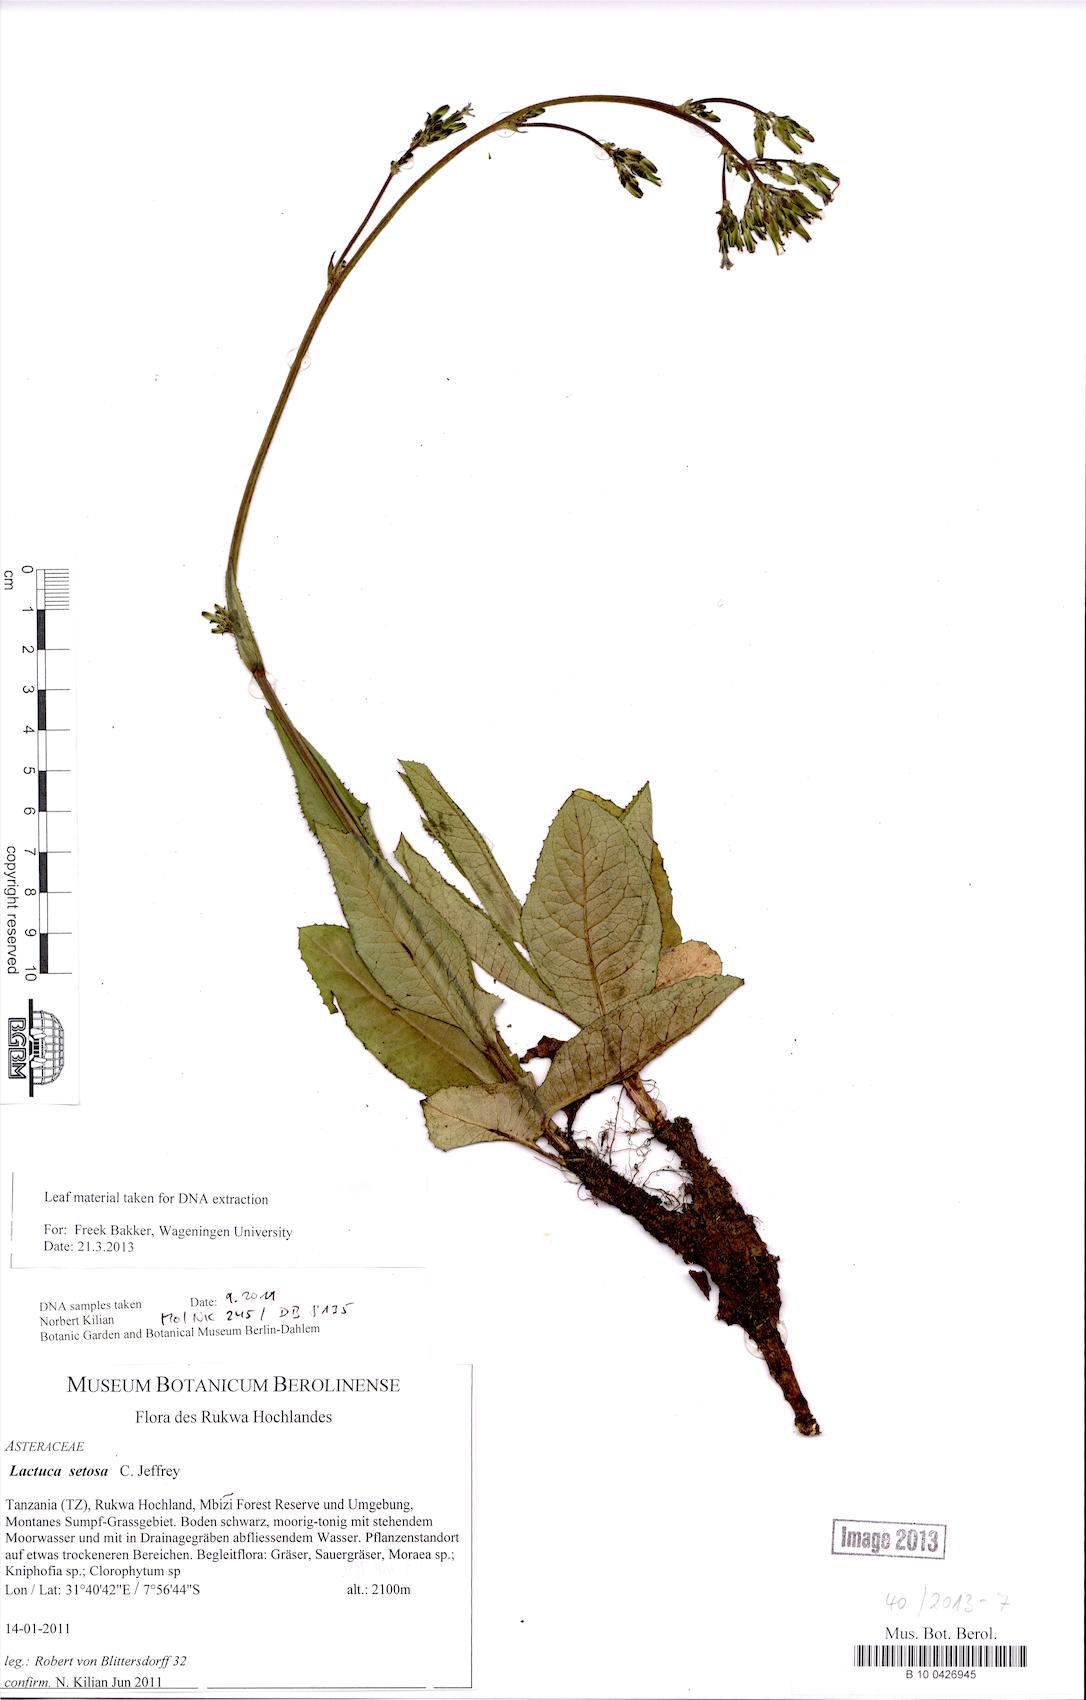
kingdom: Plantae
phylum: Tracheophyta
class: Magnoliopsida
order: Asterales
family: Asteraceae
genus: Lactuca
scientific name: Lactuca setosa
